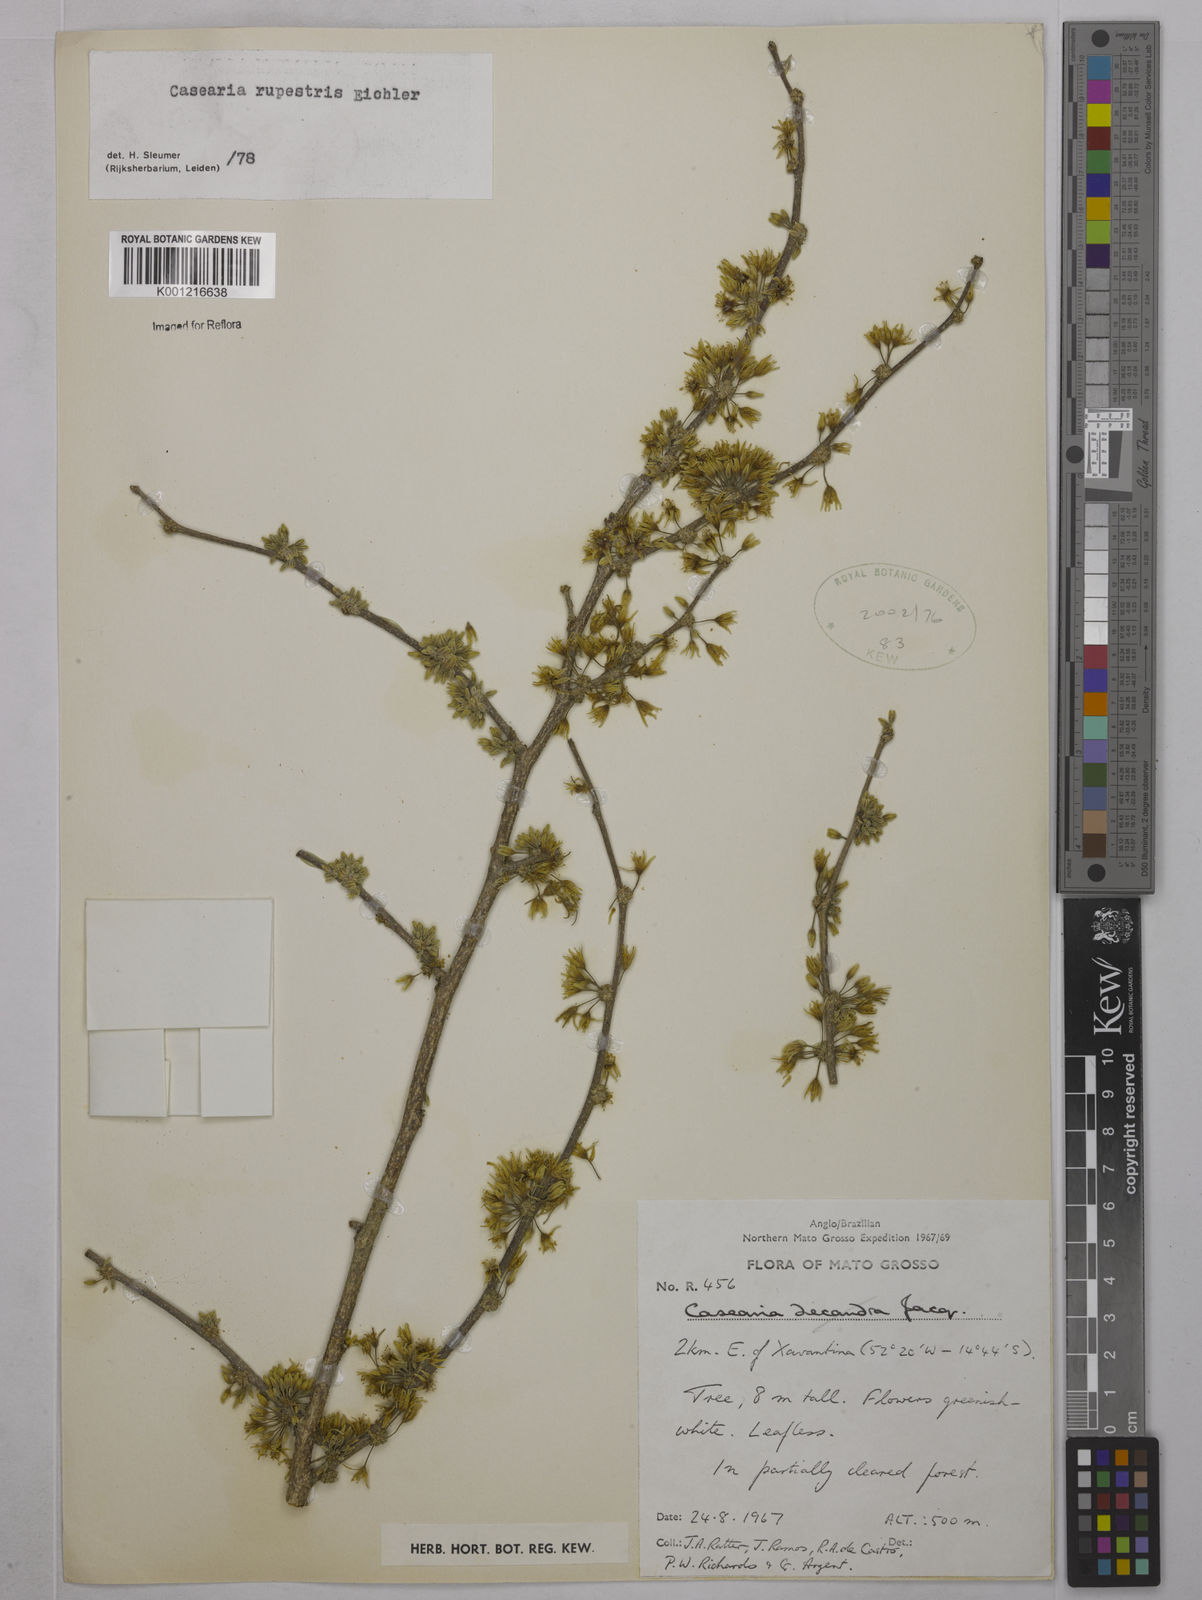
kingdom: Plantae
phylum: Tracheophyta
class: Magnoliopsida
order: Malpighiales
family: Salicaceae
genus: Casearia
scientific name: Casearia rupestris
